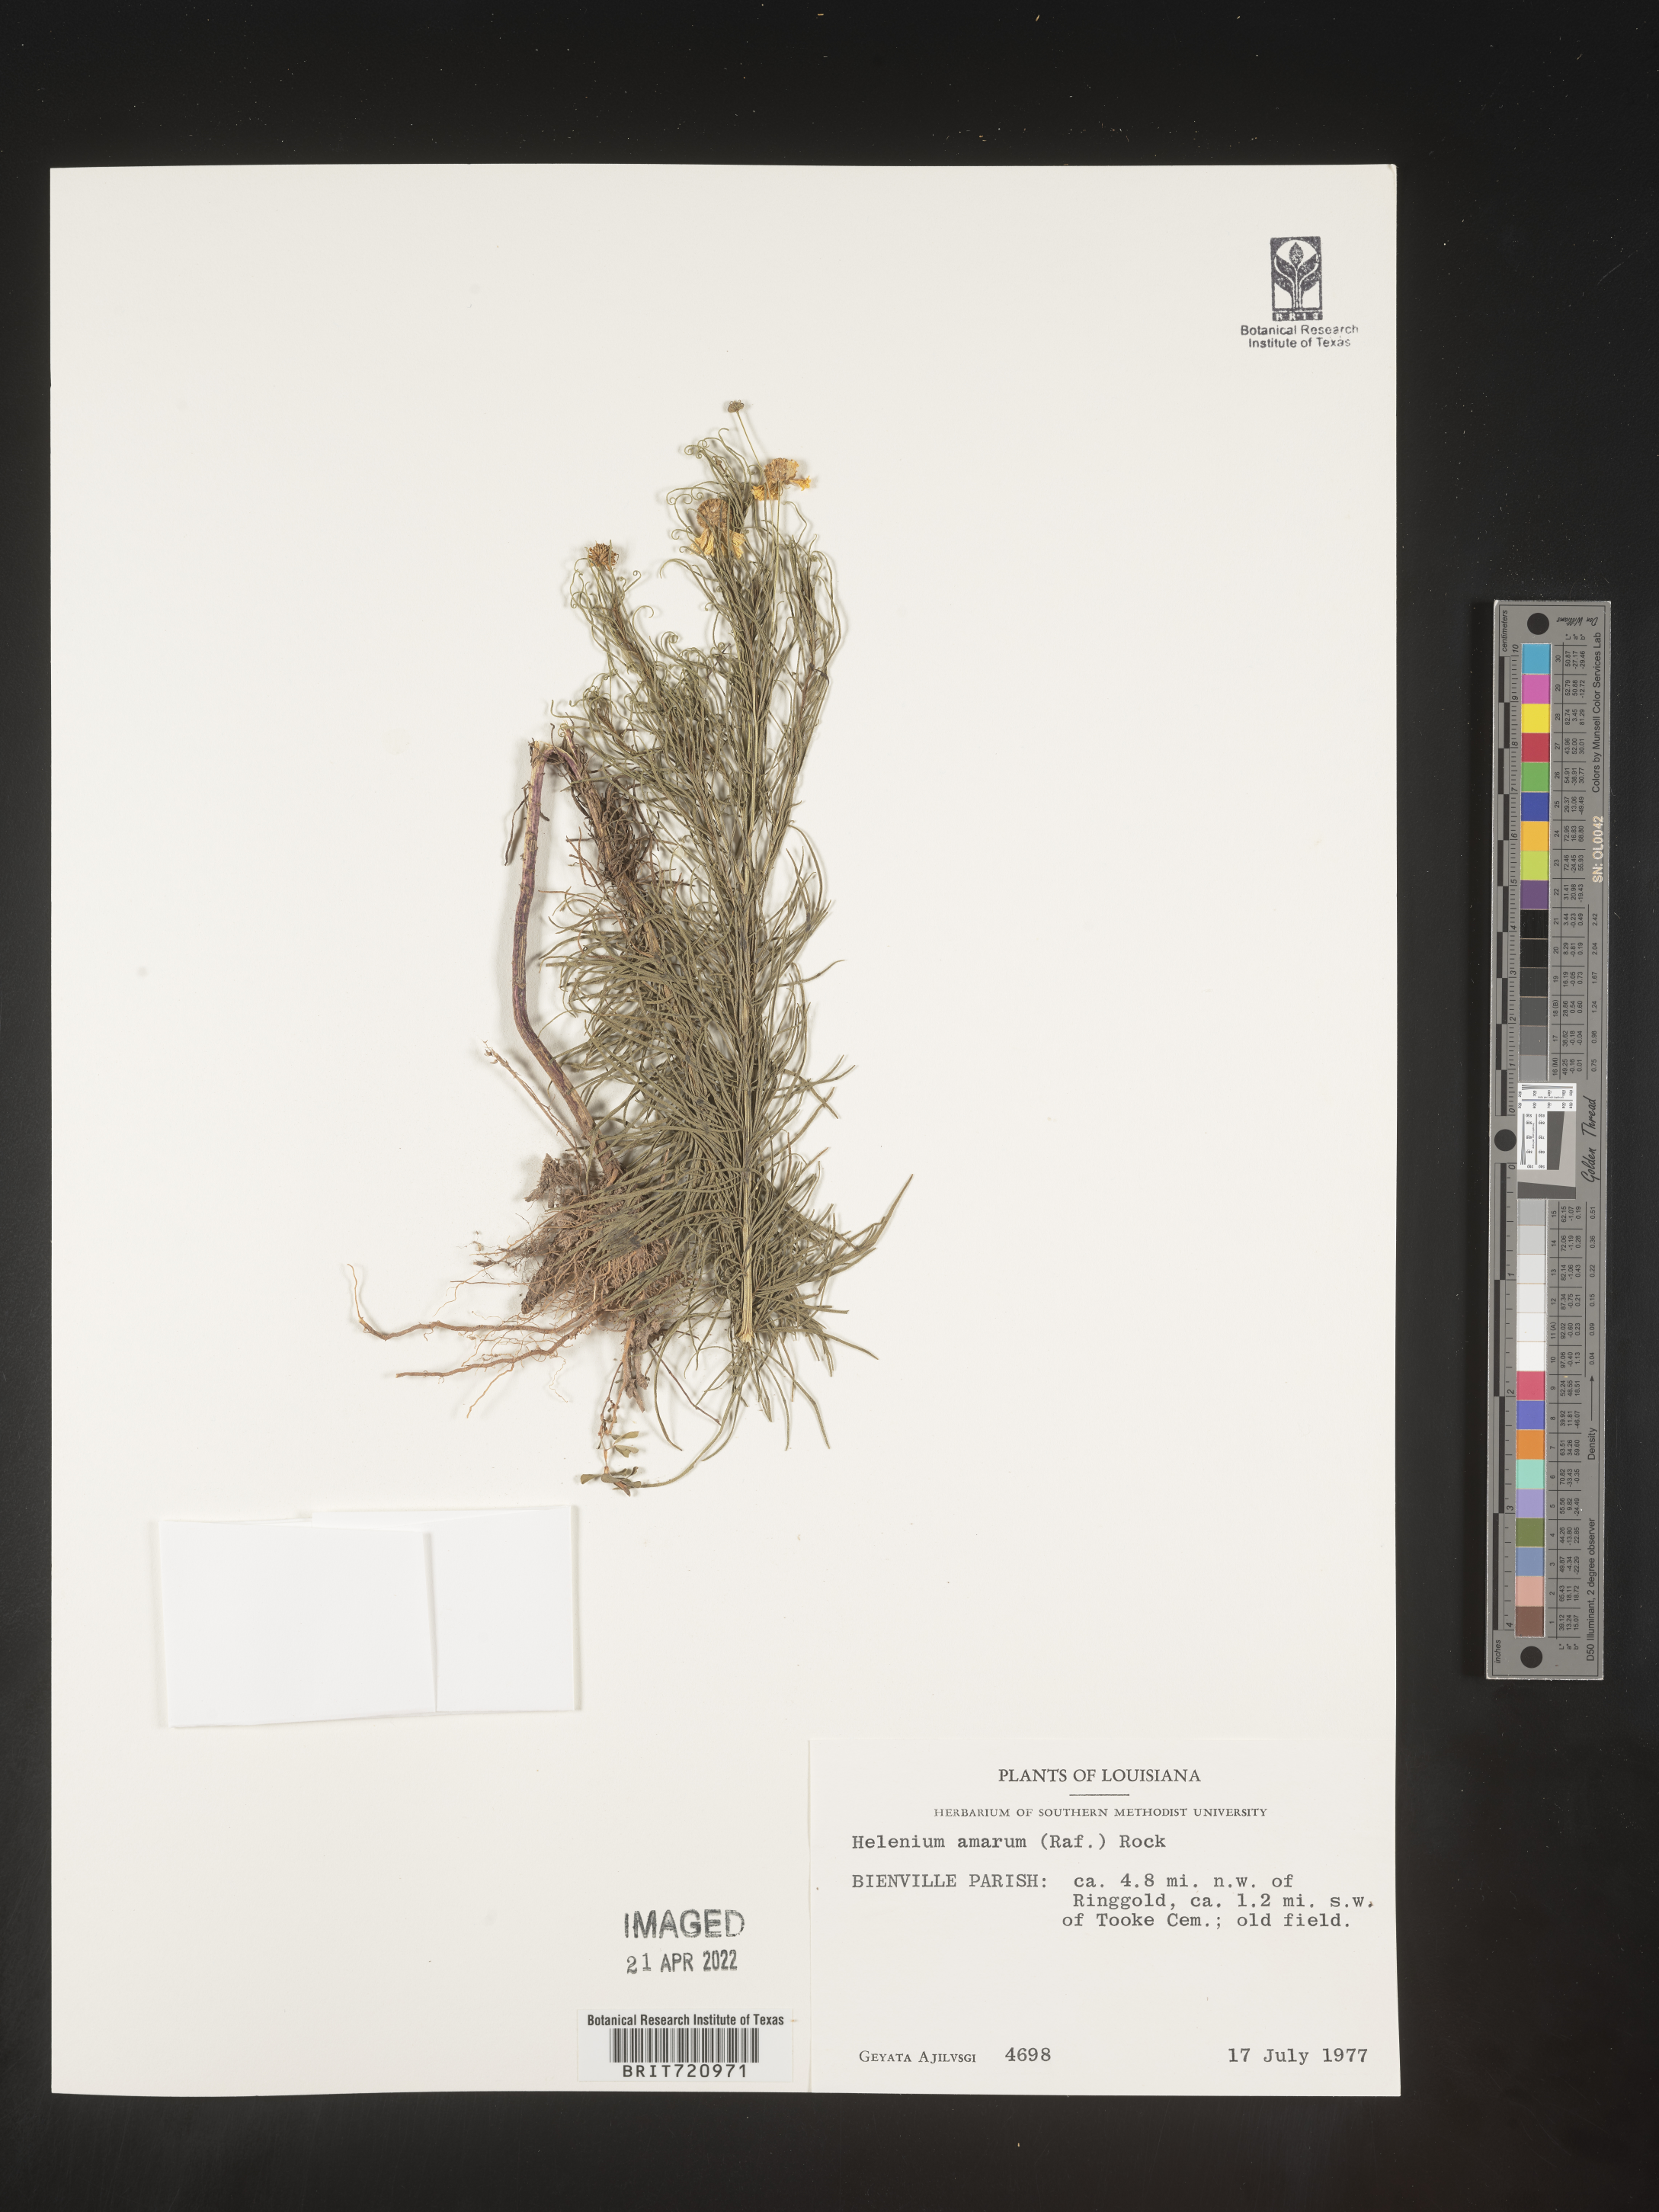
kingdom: Plantae
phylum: Tracheophyta
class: Magnoliopsida
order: Asterales
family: Asteraceae
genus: Helenium
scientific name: Helenium amarum
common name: Bitter sneezeweed
